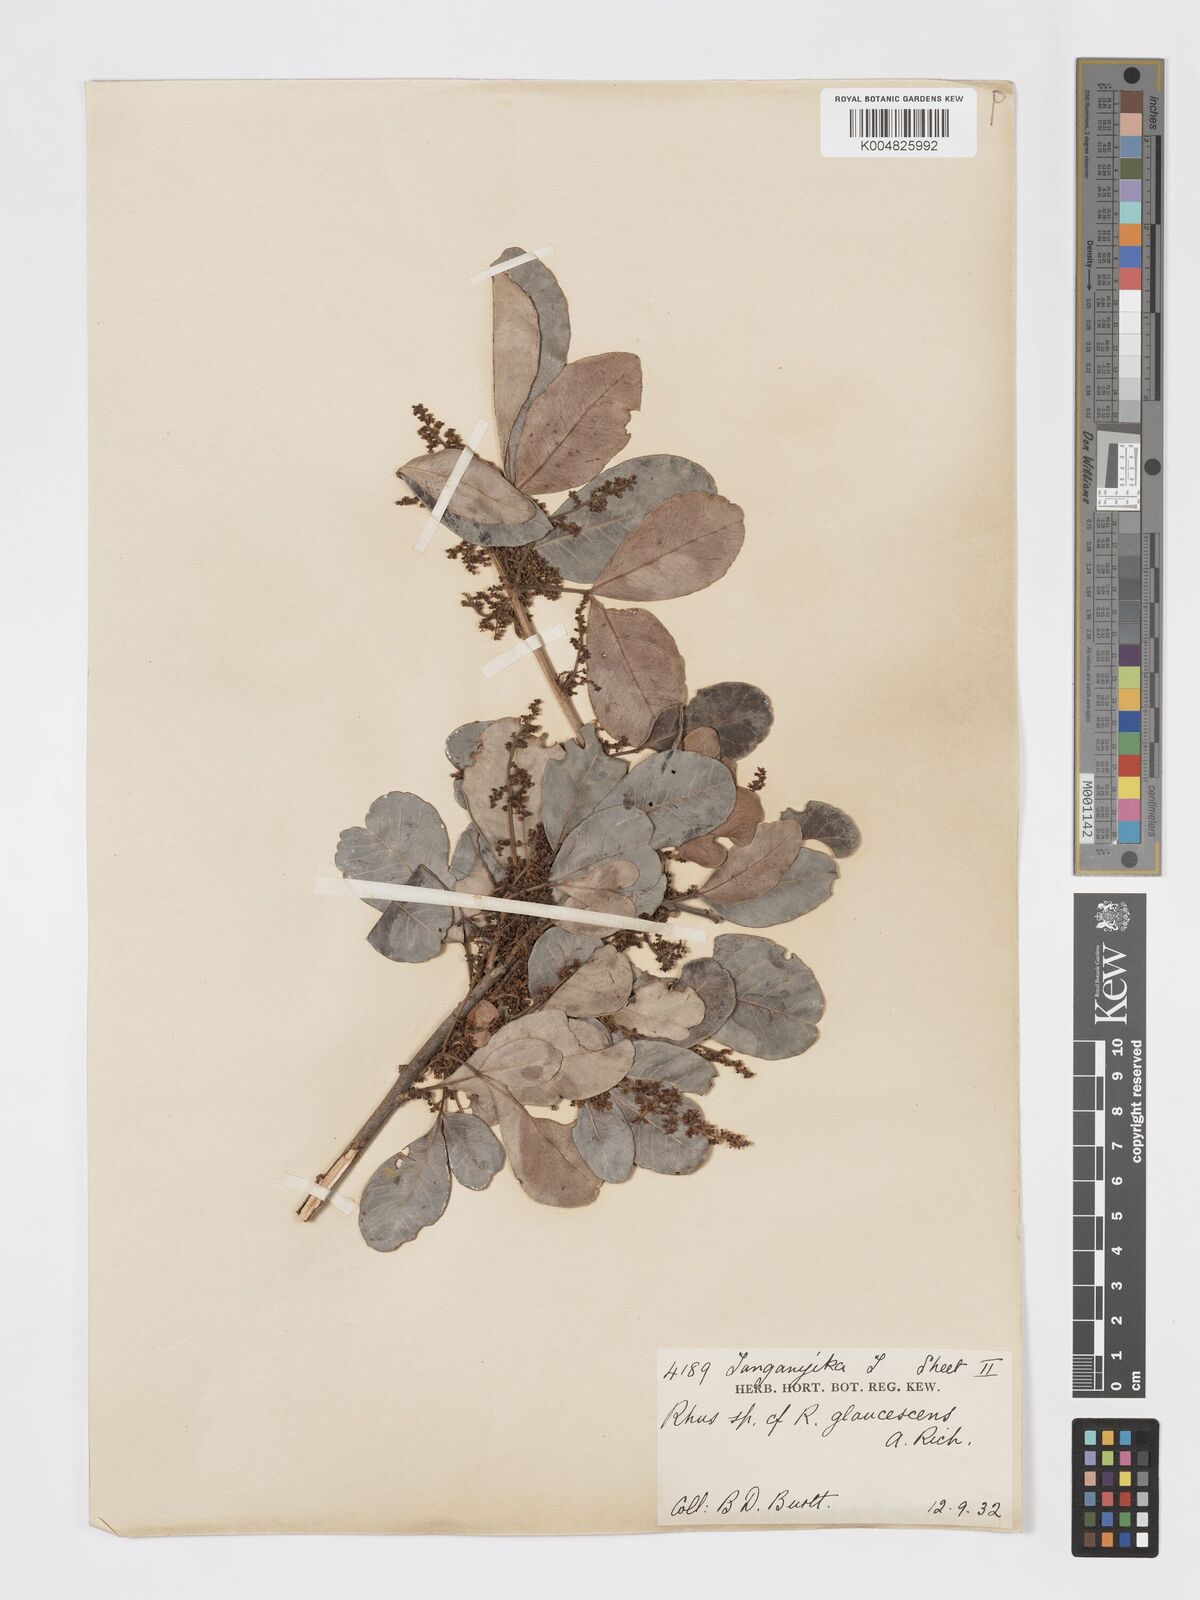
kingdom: Plantae
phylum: Tracheophyta
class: Magnoliopsida
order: Sapindales
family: Anacardiaceae
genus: Searsia
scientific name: Searsia natalensis
